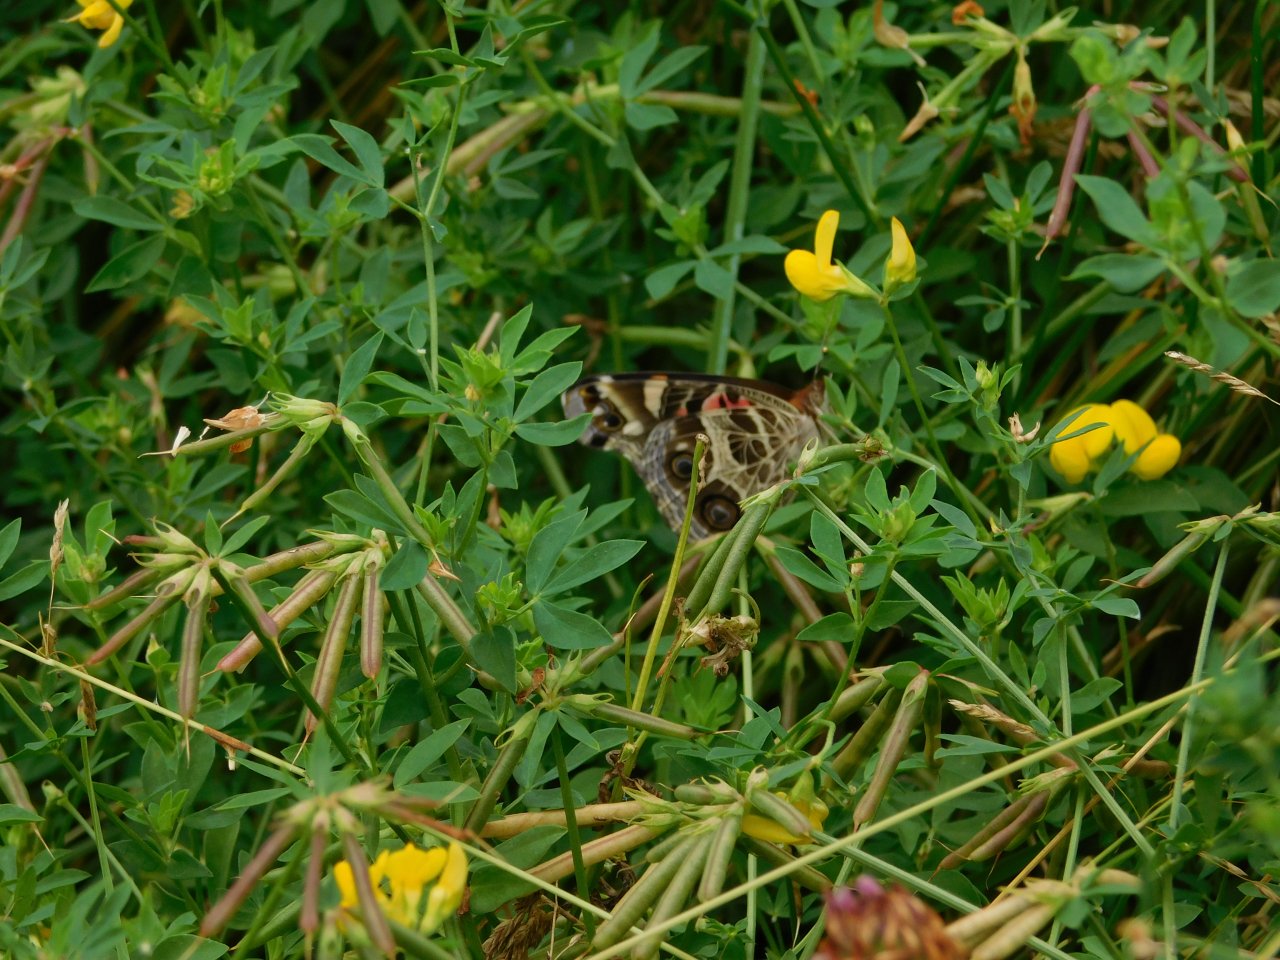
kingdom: Animalia
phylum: Arthropoda
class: Insecta
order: Lepidoptera
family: Nymphalidae
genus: Vanessa
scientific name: Vanessa virginiensis
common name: American Lady
